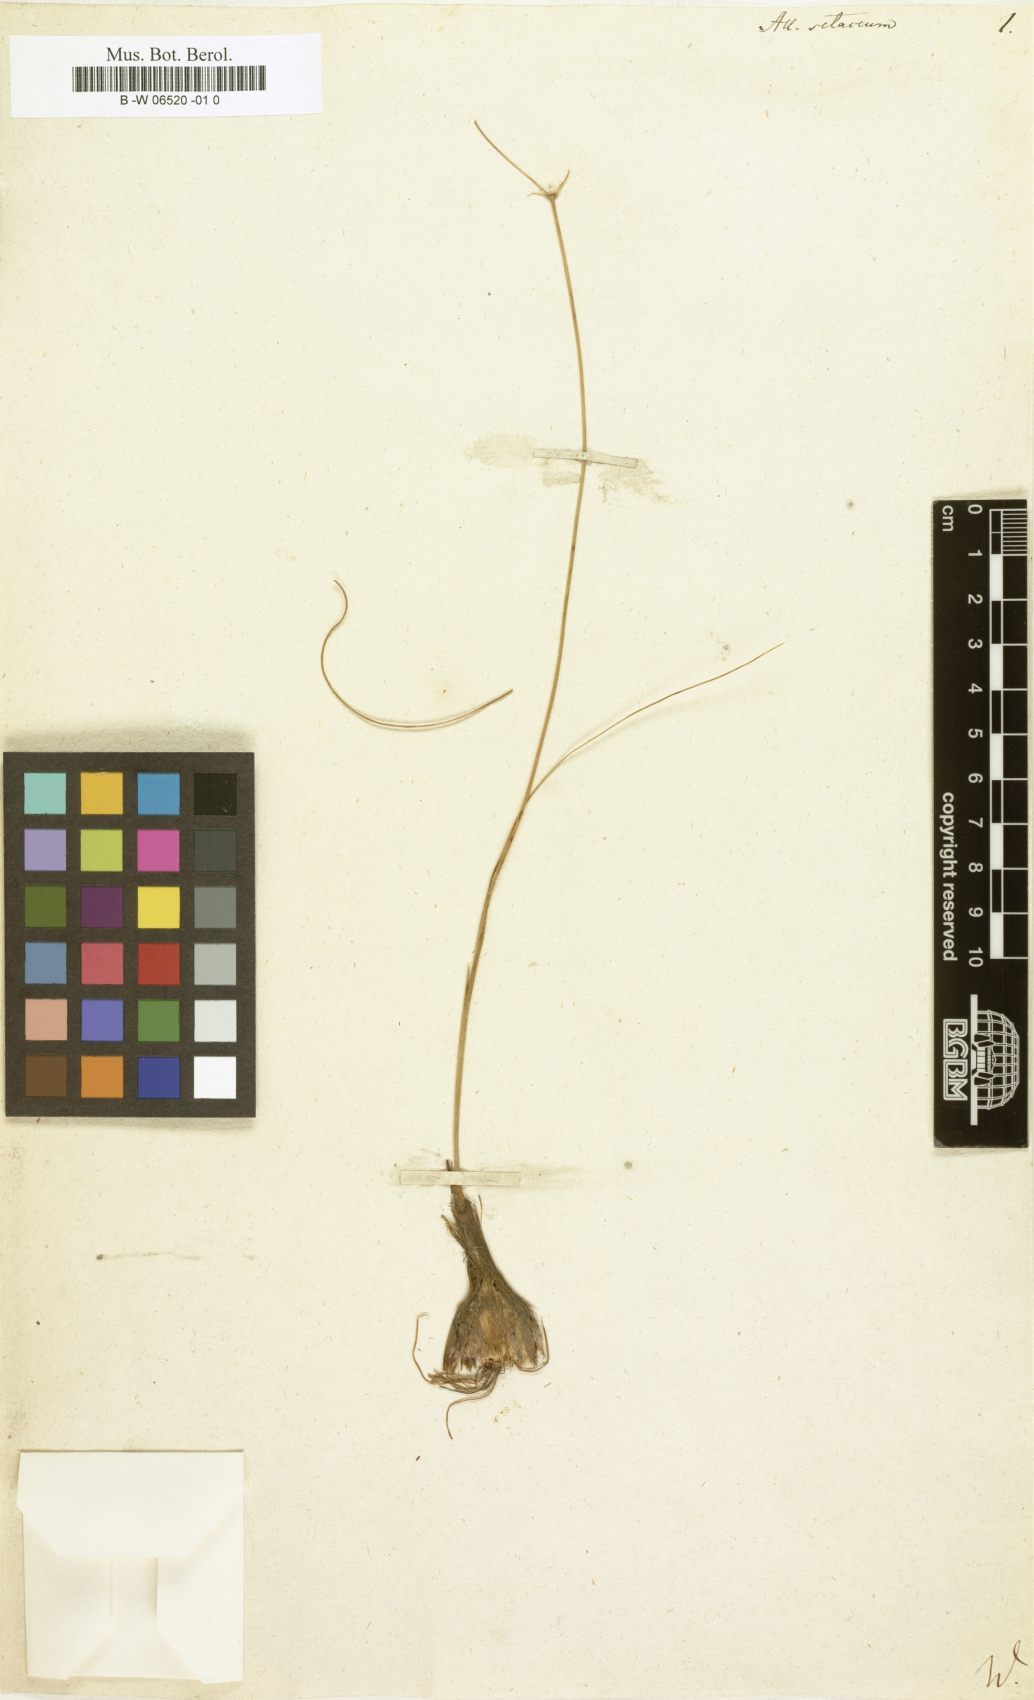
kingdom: Plantae
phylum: Tracheophyta
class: Liliopsida
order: Asparagales
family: Amaryllidaceae
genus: Allium
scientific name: Allium moschatum
